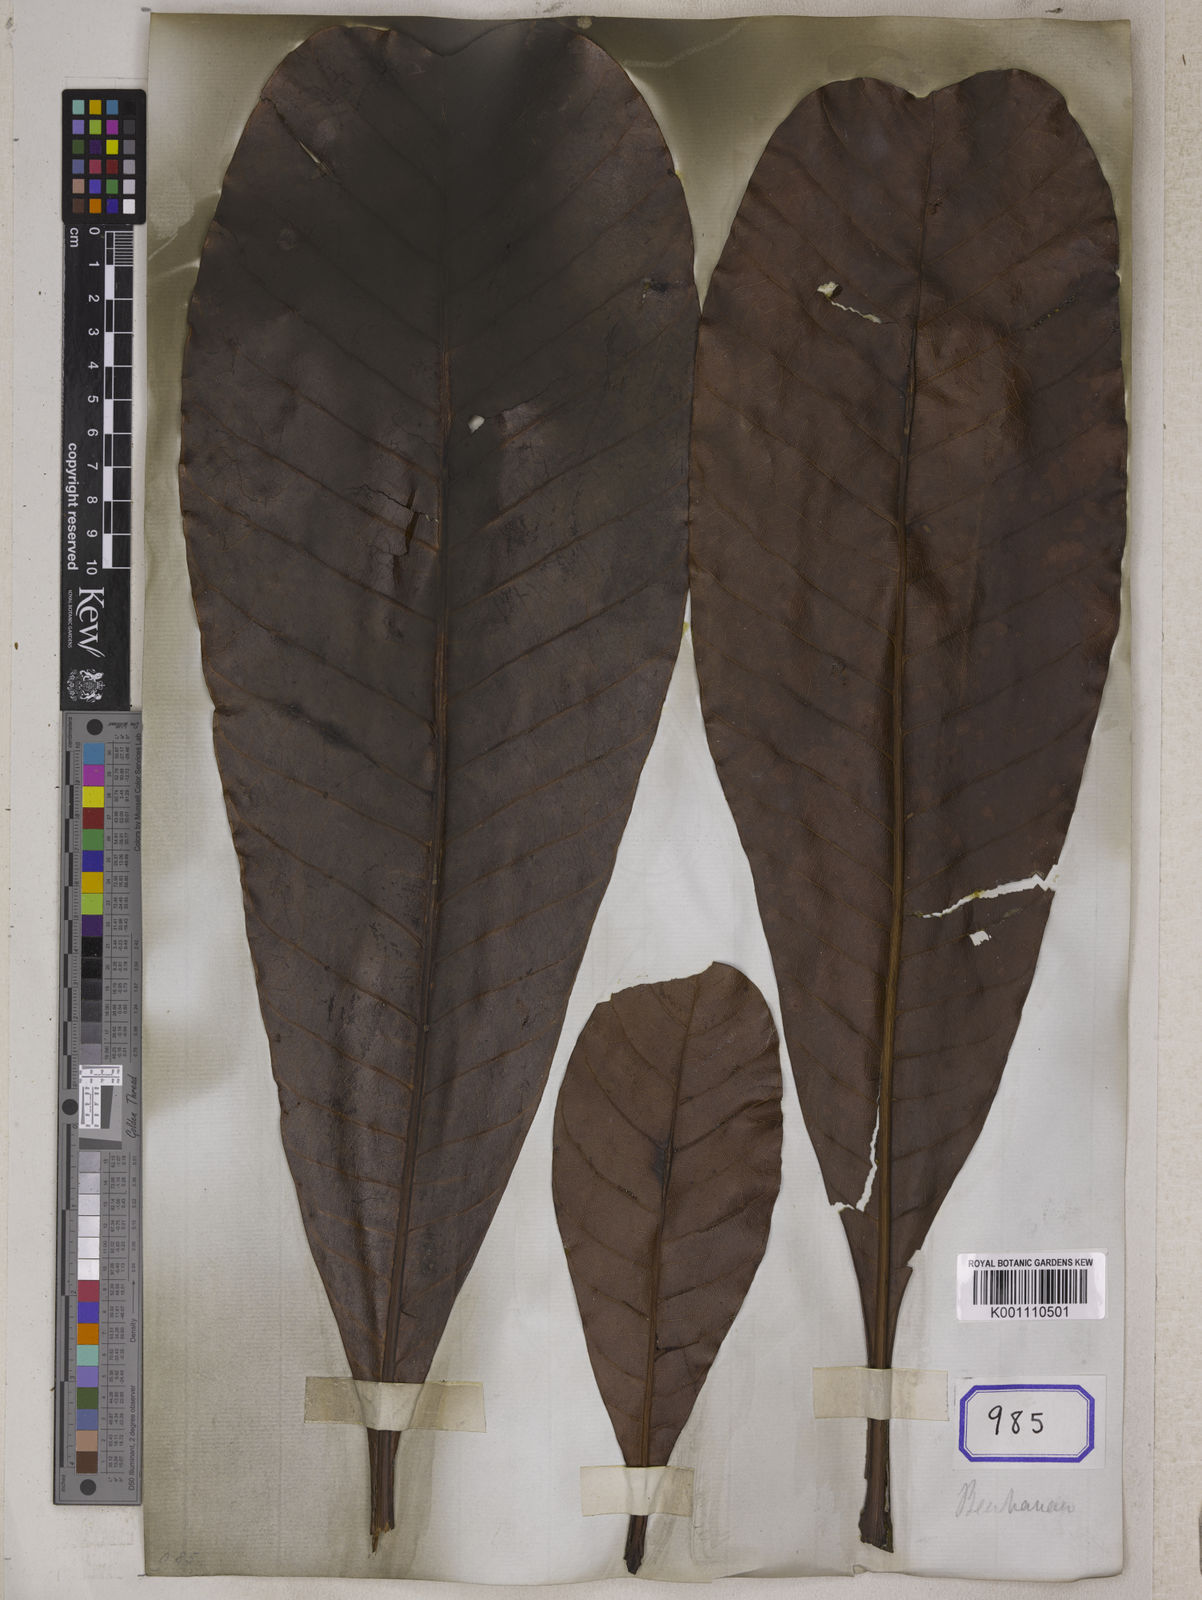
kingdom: Plantae
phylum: Tracheophyta
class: Magnoliopsida
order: Sapindales
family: Anacardiaceae
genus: Semecarpus
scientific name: Semecarpus
